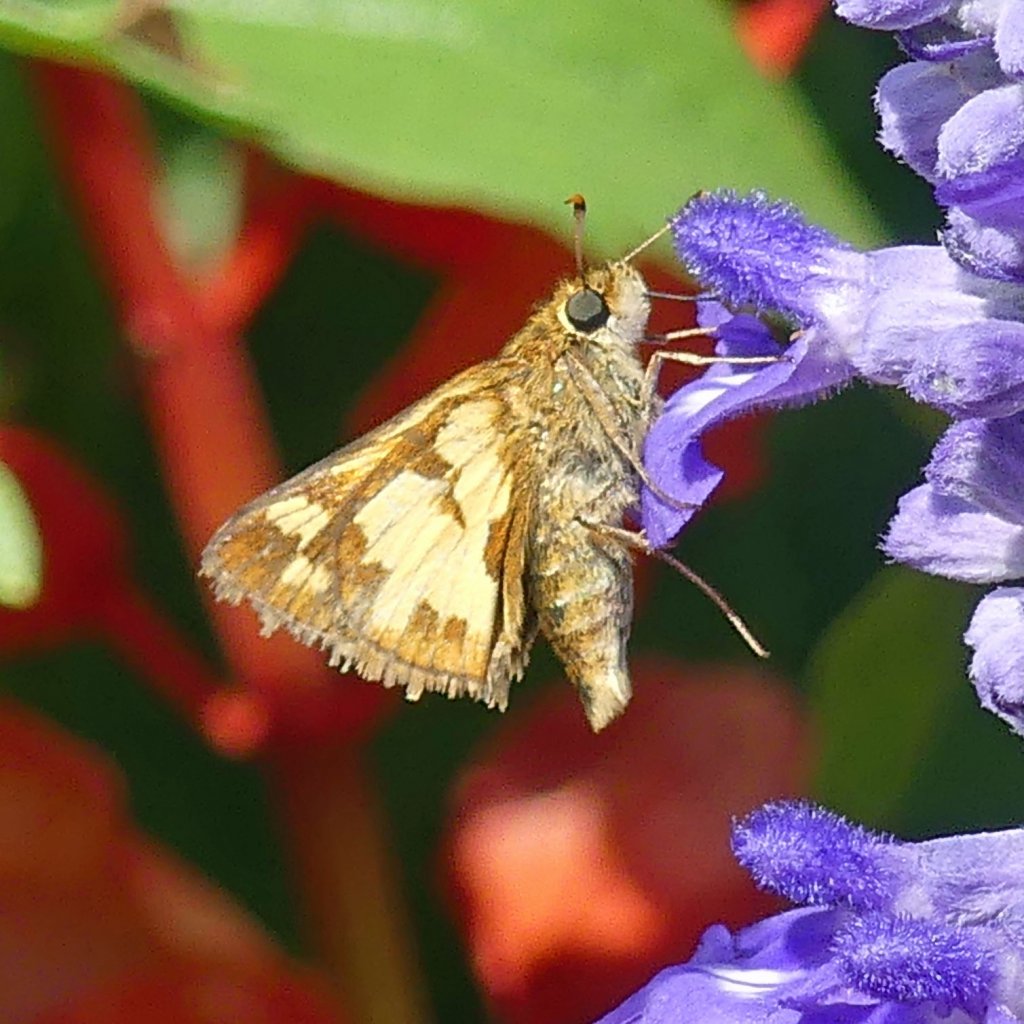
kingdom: Animalia
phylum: Arthropoda
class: Insecta
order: Lepidoptera
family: Hesperiidae
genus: Polites
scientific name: Polites coras
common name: Peck's Skipper
